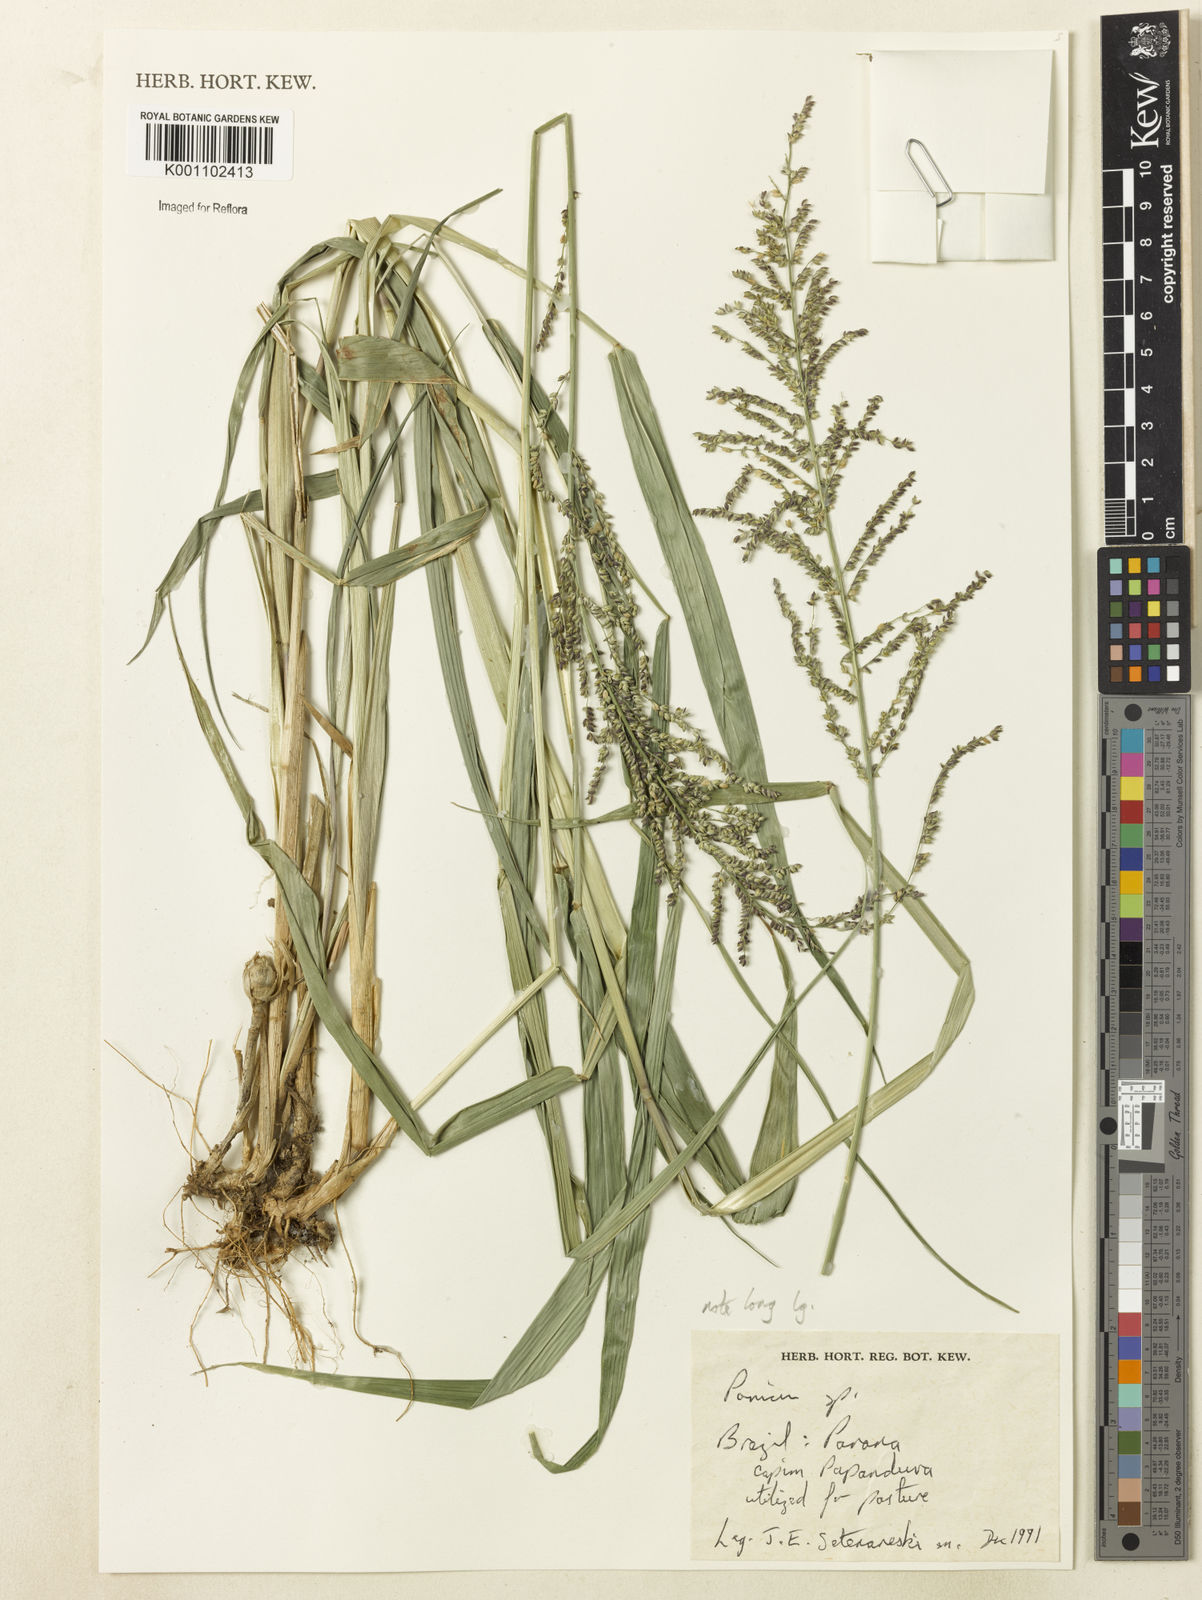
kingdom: Plantae
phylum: Tracheophyta
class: Liliopsida
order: Poales
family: Poaceae
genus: Urochloa
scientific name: Urochloa mutica
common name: Para grass
